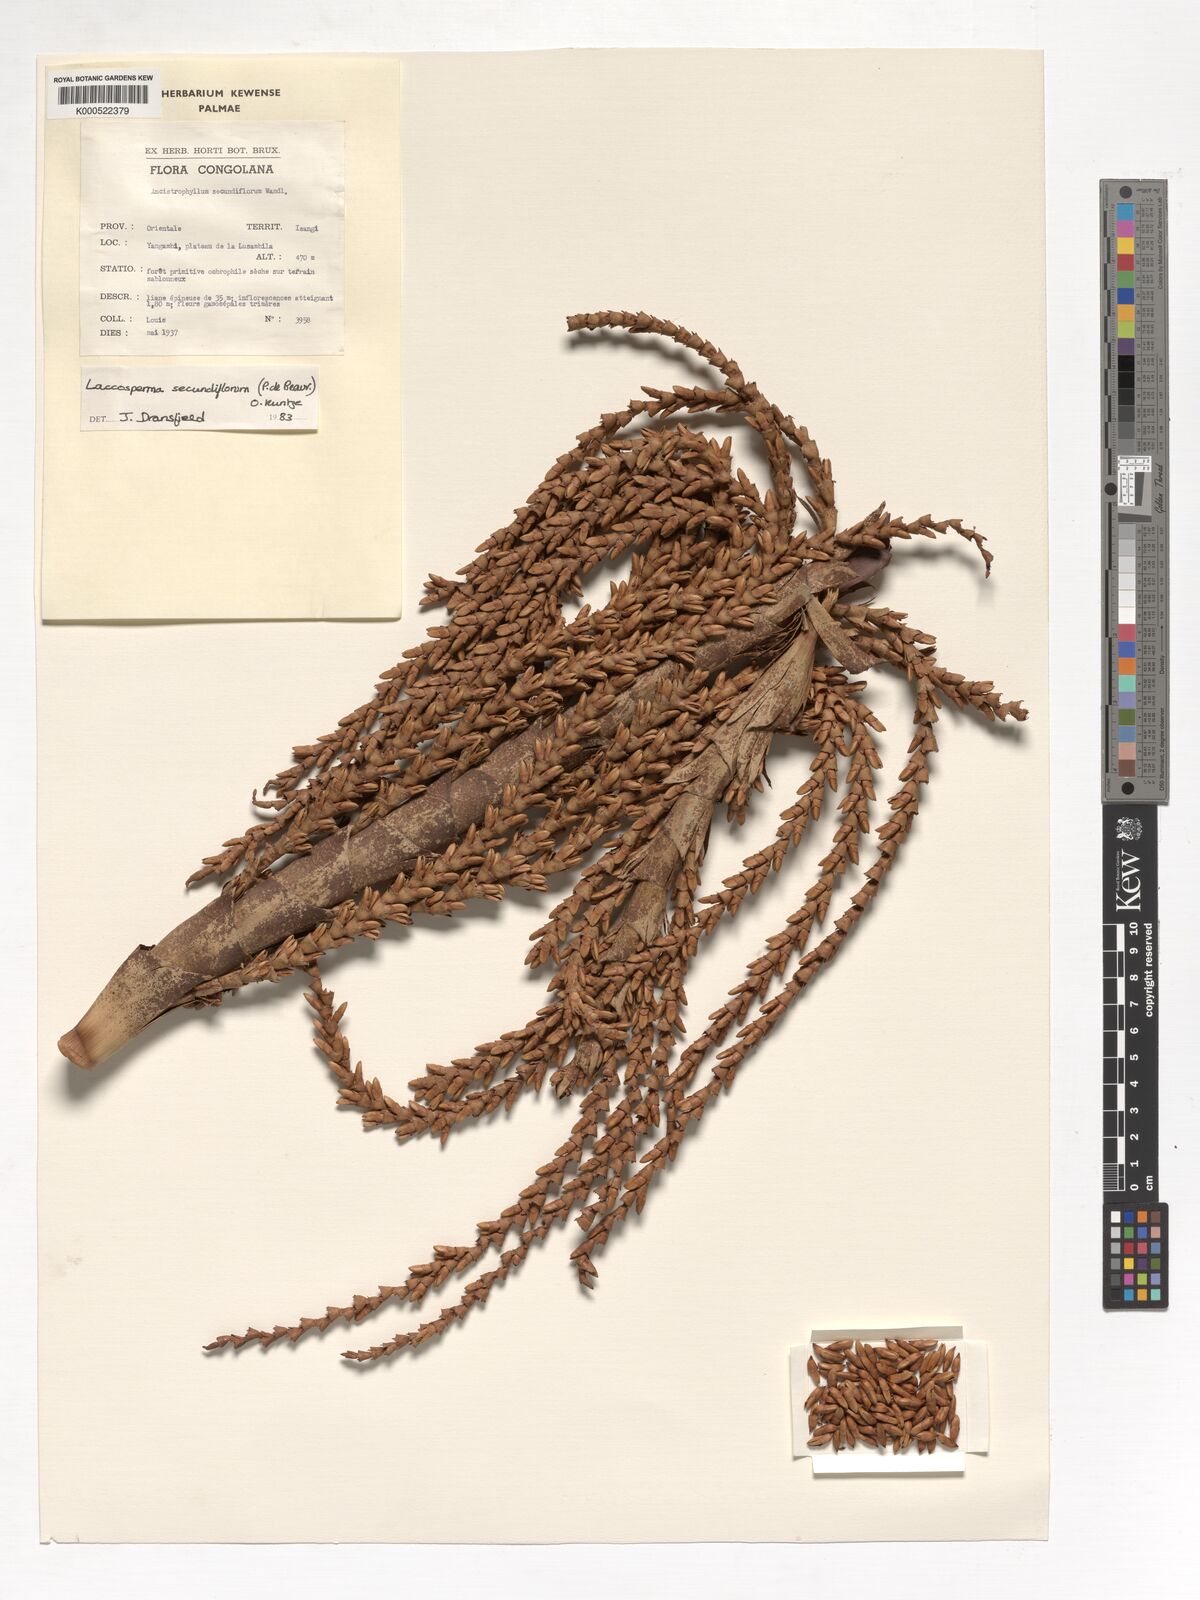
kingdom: Plantae
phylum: Tracheophyta
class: Liliopsida
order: Arecales
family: Arecaceae
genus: Laccosperma
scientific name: Laccosperma secundiflorum
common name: Rattan
